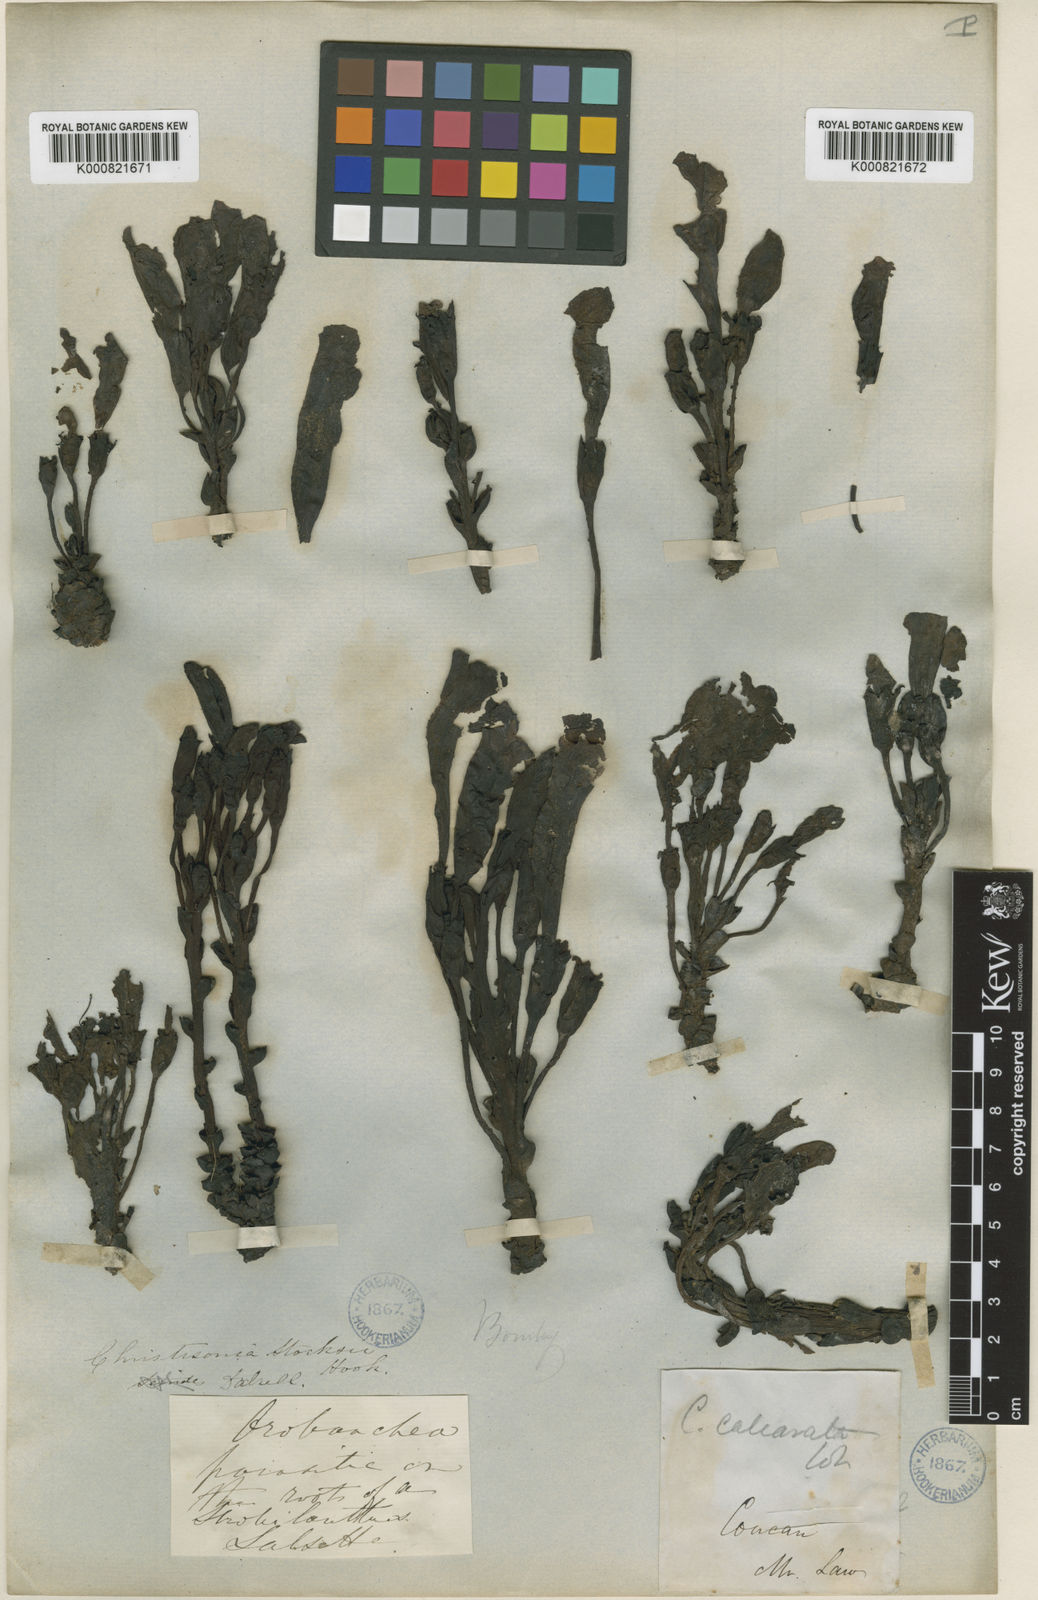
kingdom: Plantae
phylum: Tracheophyta
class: Magnoliopsida
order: Lamiales
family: Orobanchaceae
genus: Christisonia
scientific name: Christisonia calcarata
